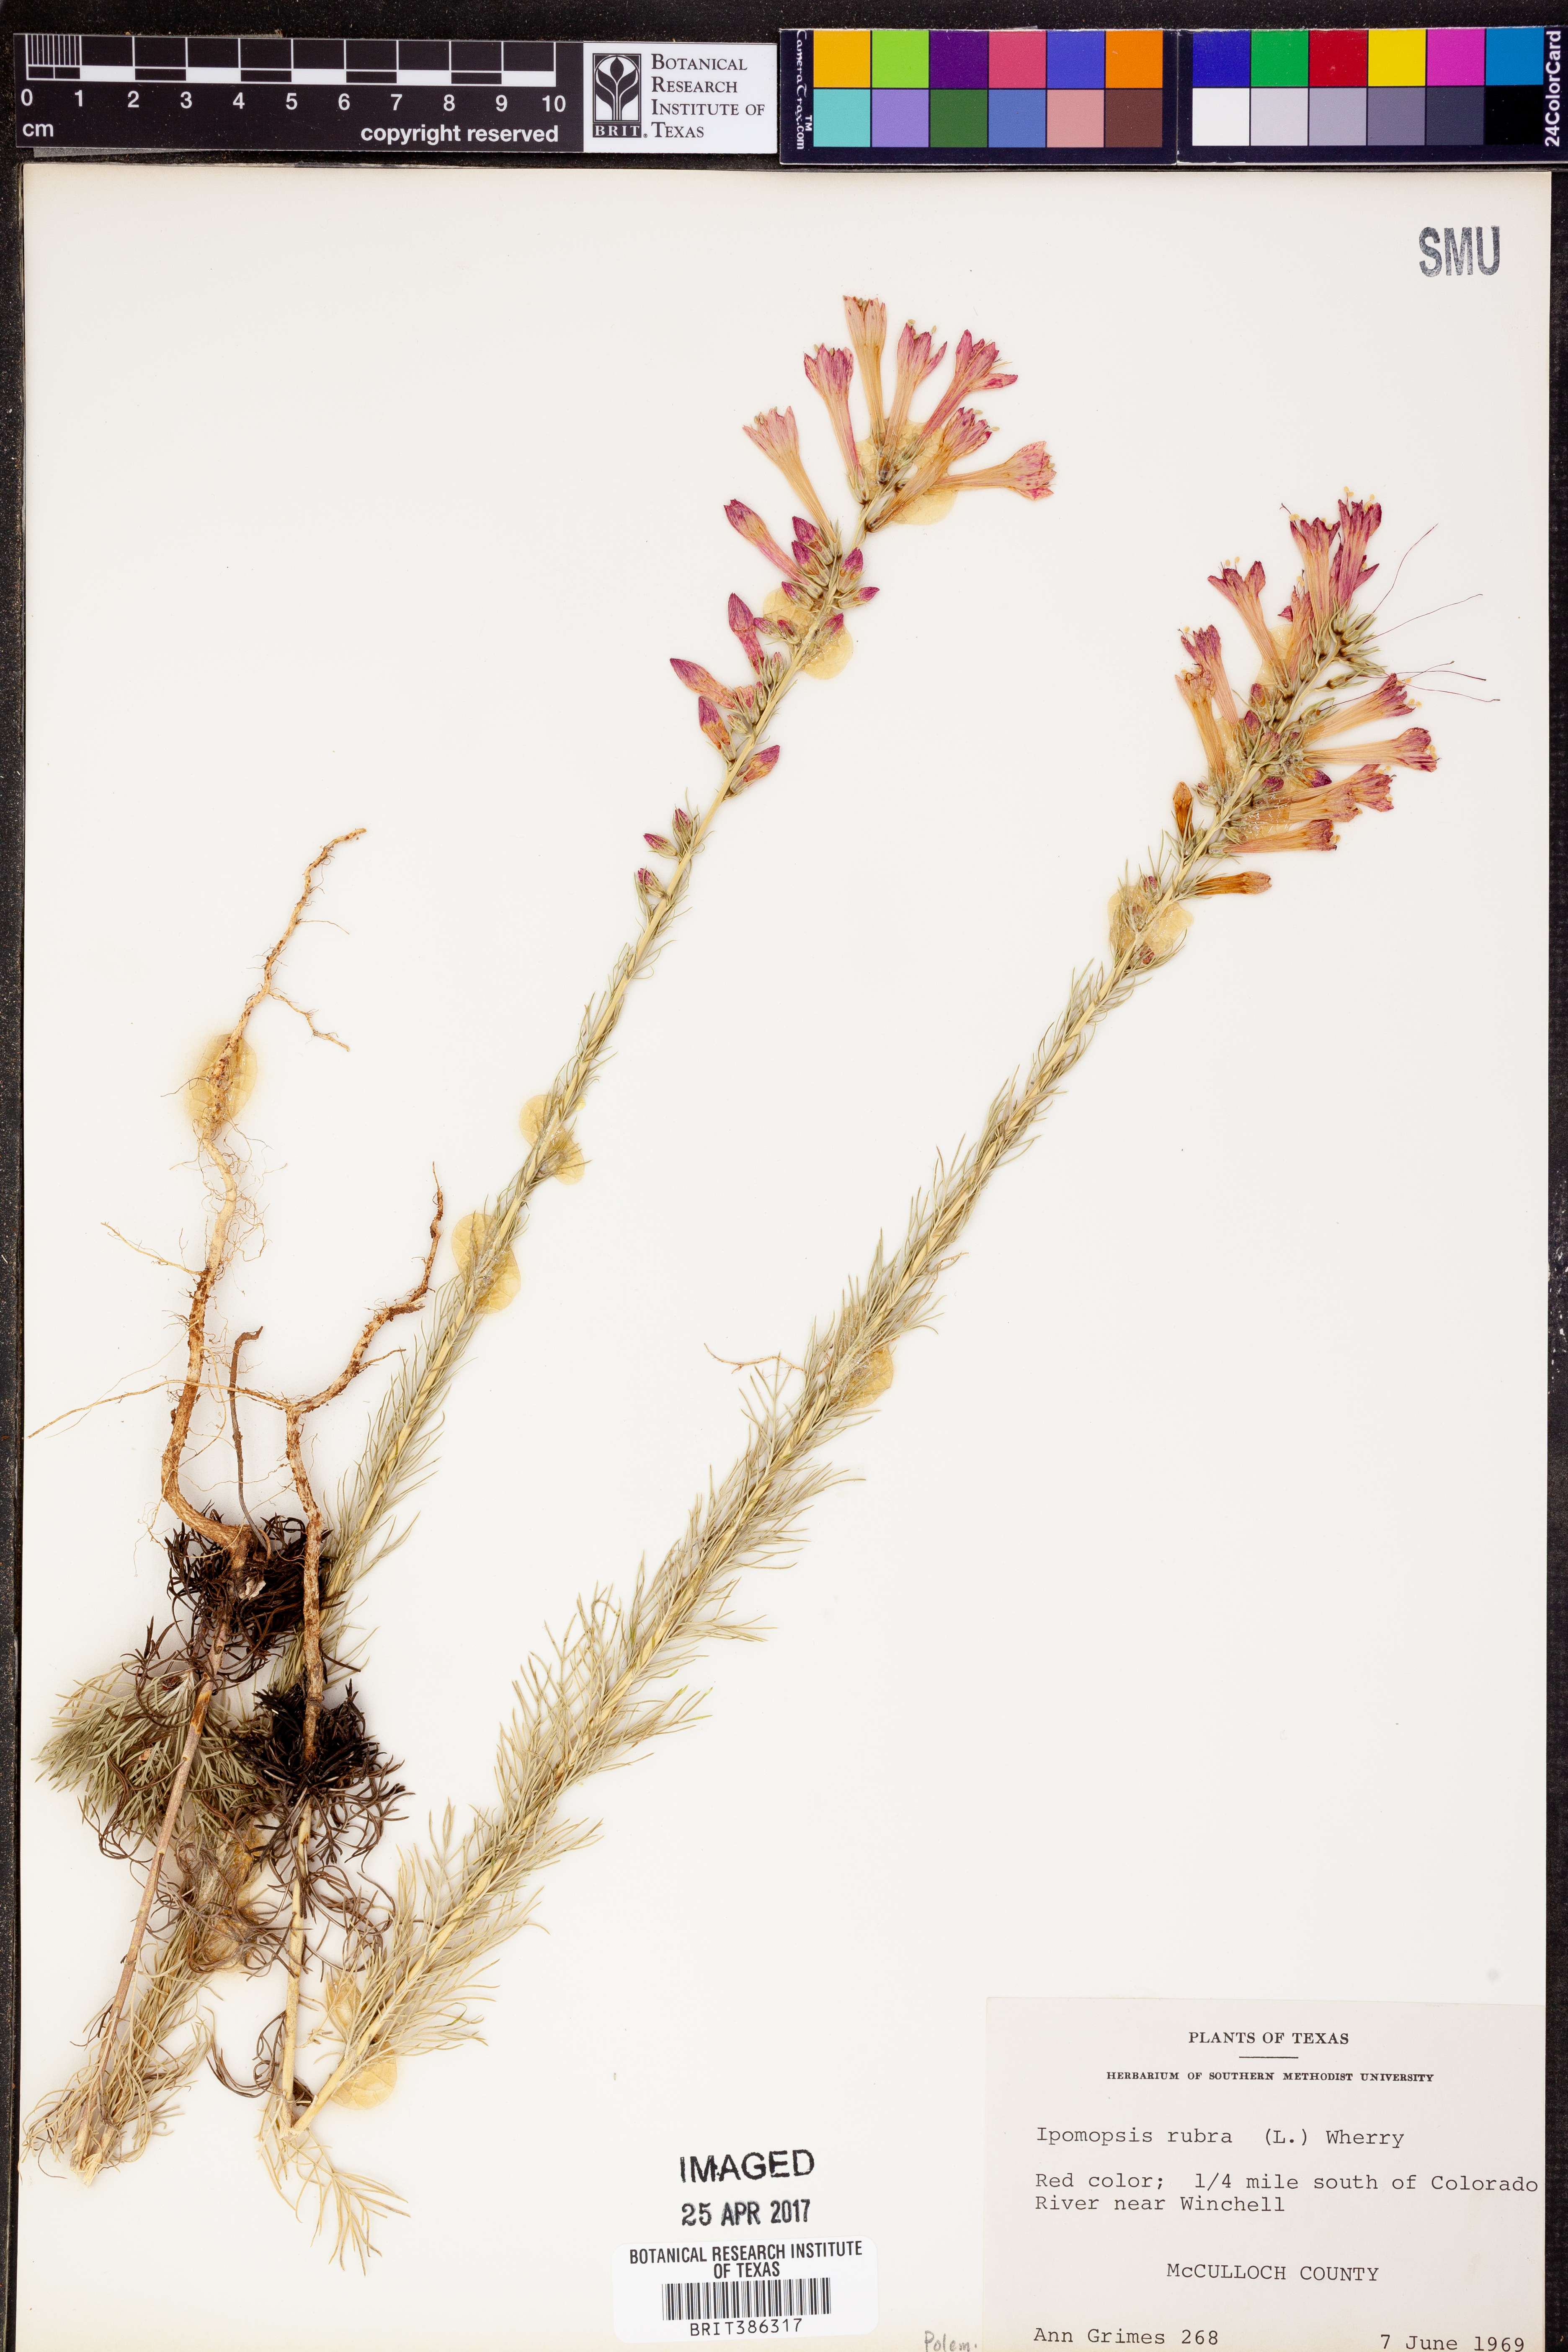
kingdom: Plantae
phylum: Tracheophyta
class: Magnoliopsida
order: Ericales
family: Polemoniaceae
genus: Ipomopsis
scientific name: Ipomopsis rubra
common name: Skyrocket
